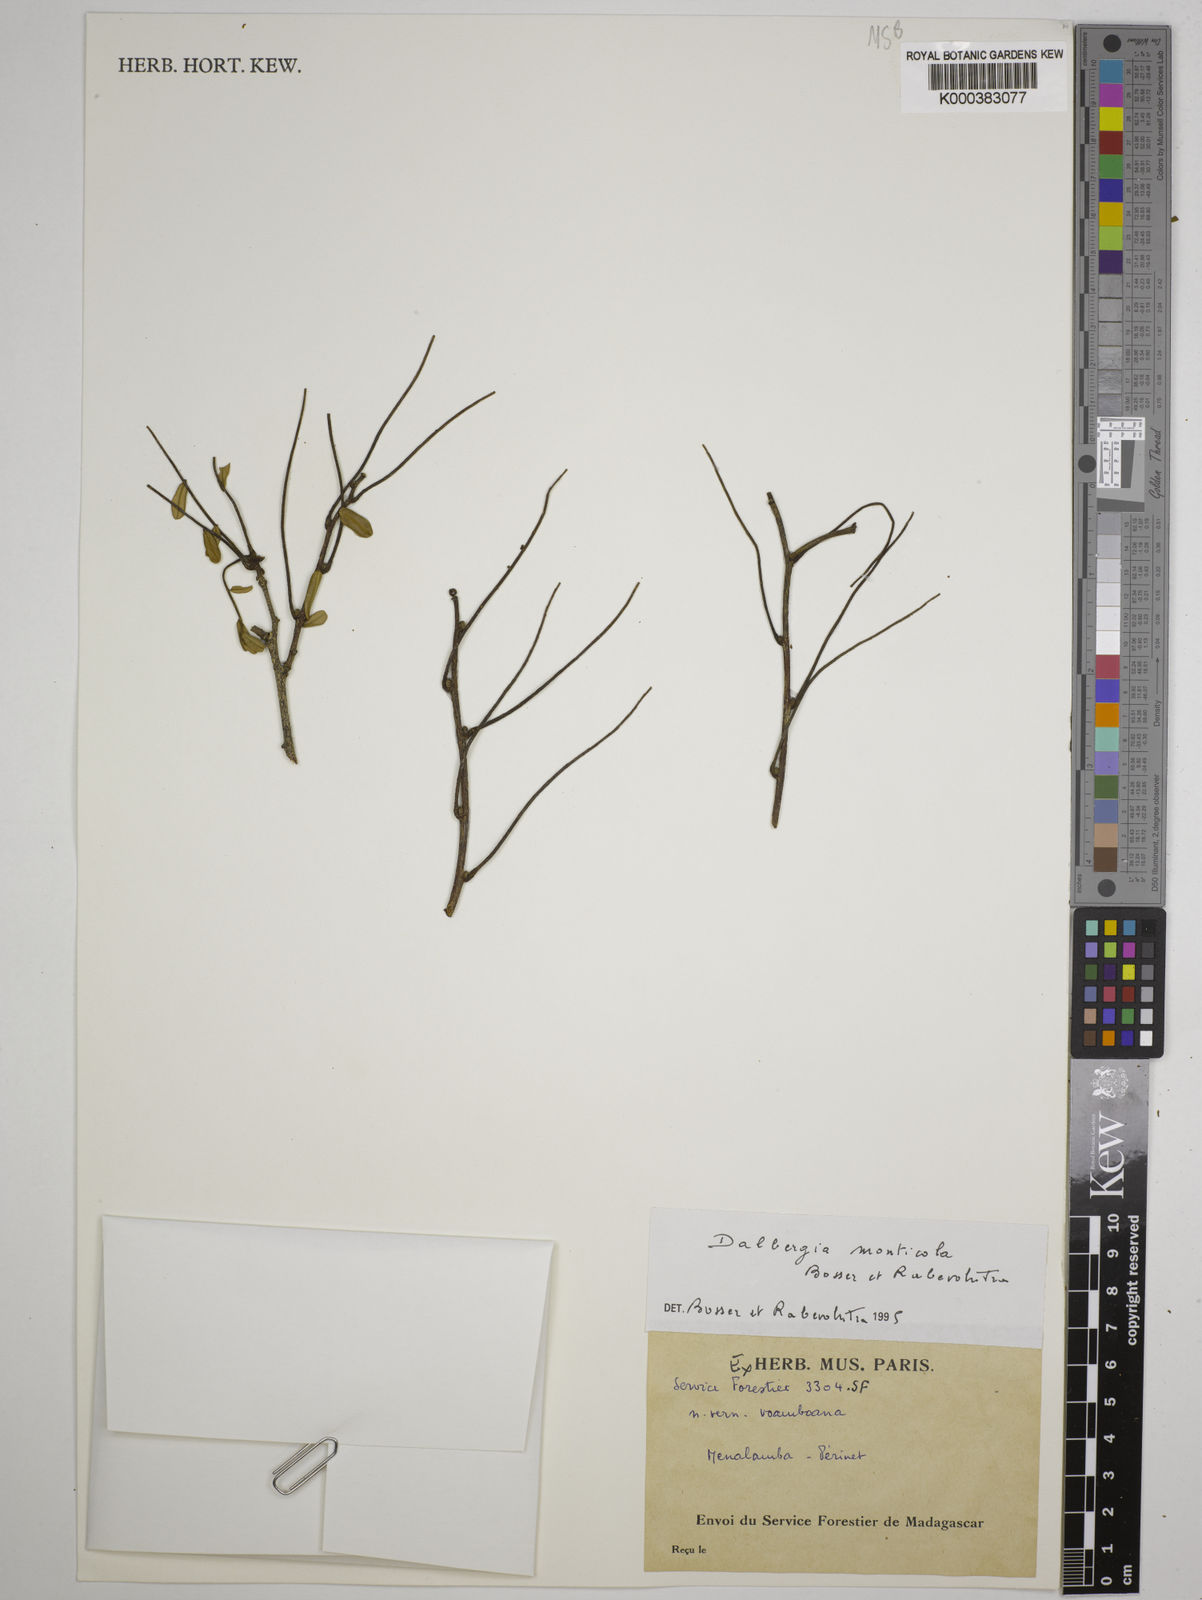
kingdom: Plantae
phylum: Tracheophyta
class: Magnoliopsida
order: Fabales
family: Fabaceae
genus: Dalbergia
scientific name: Dalbergia monticola
